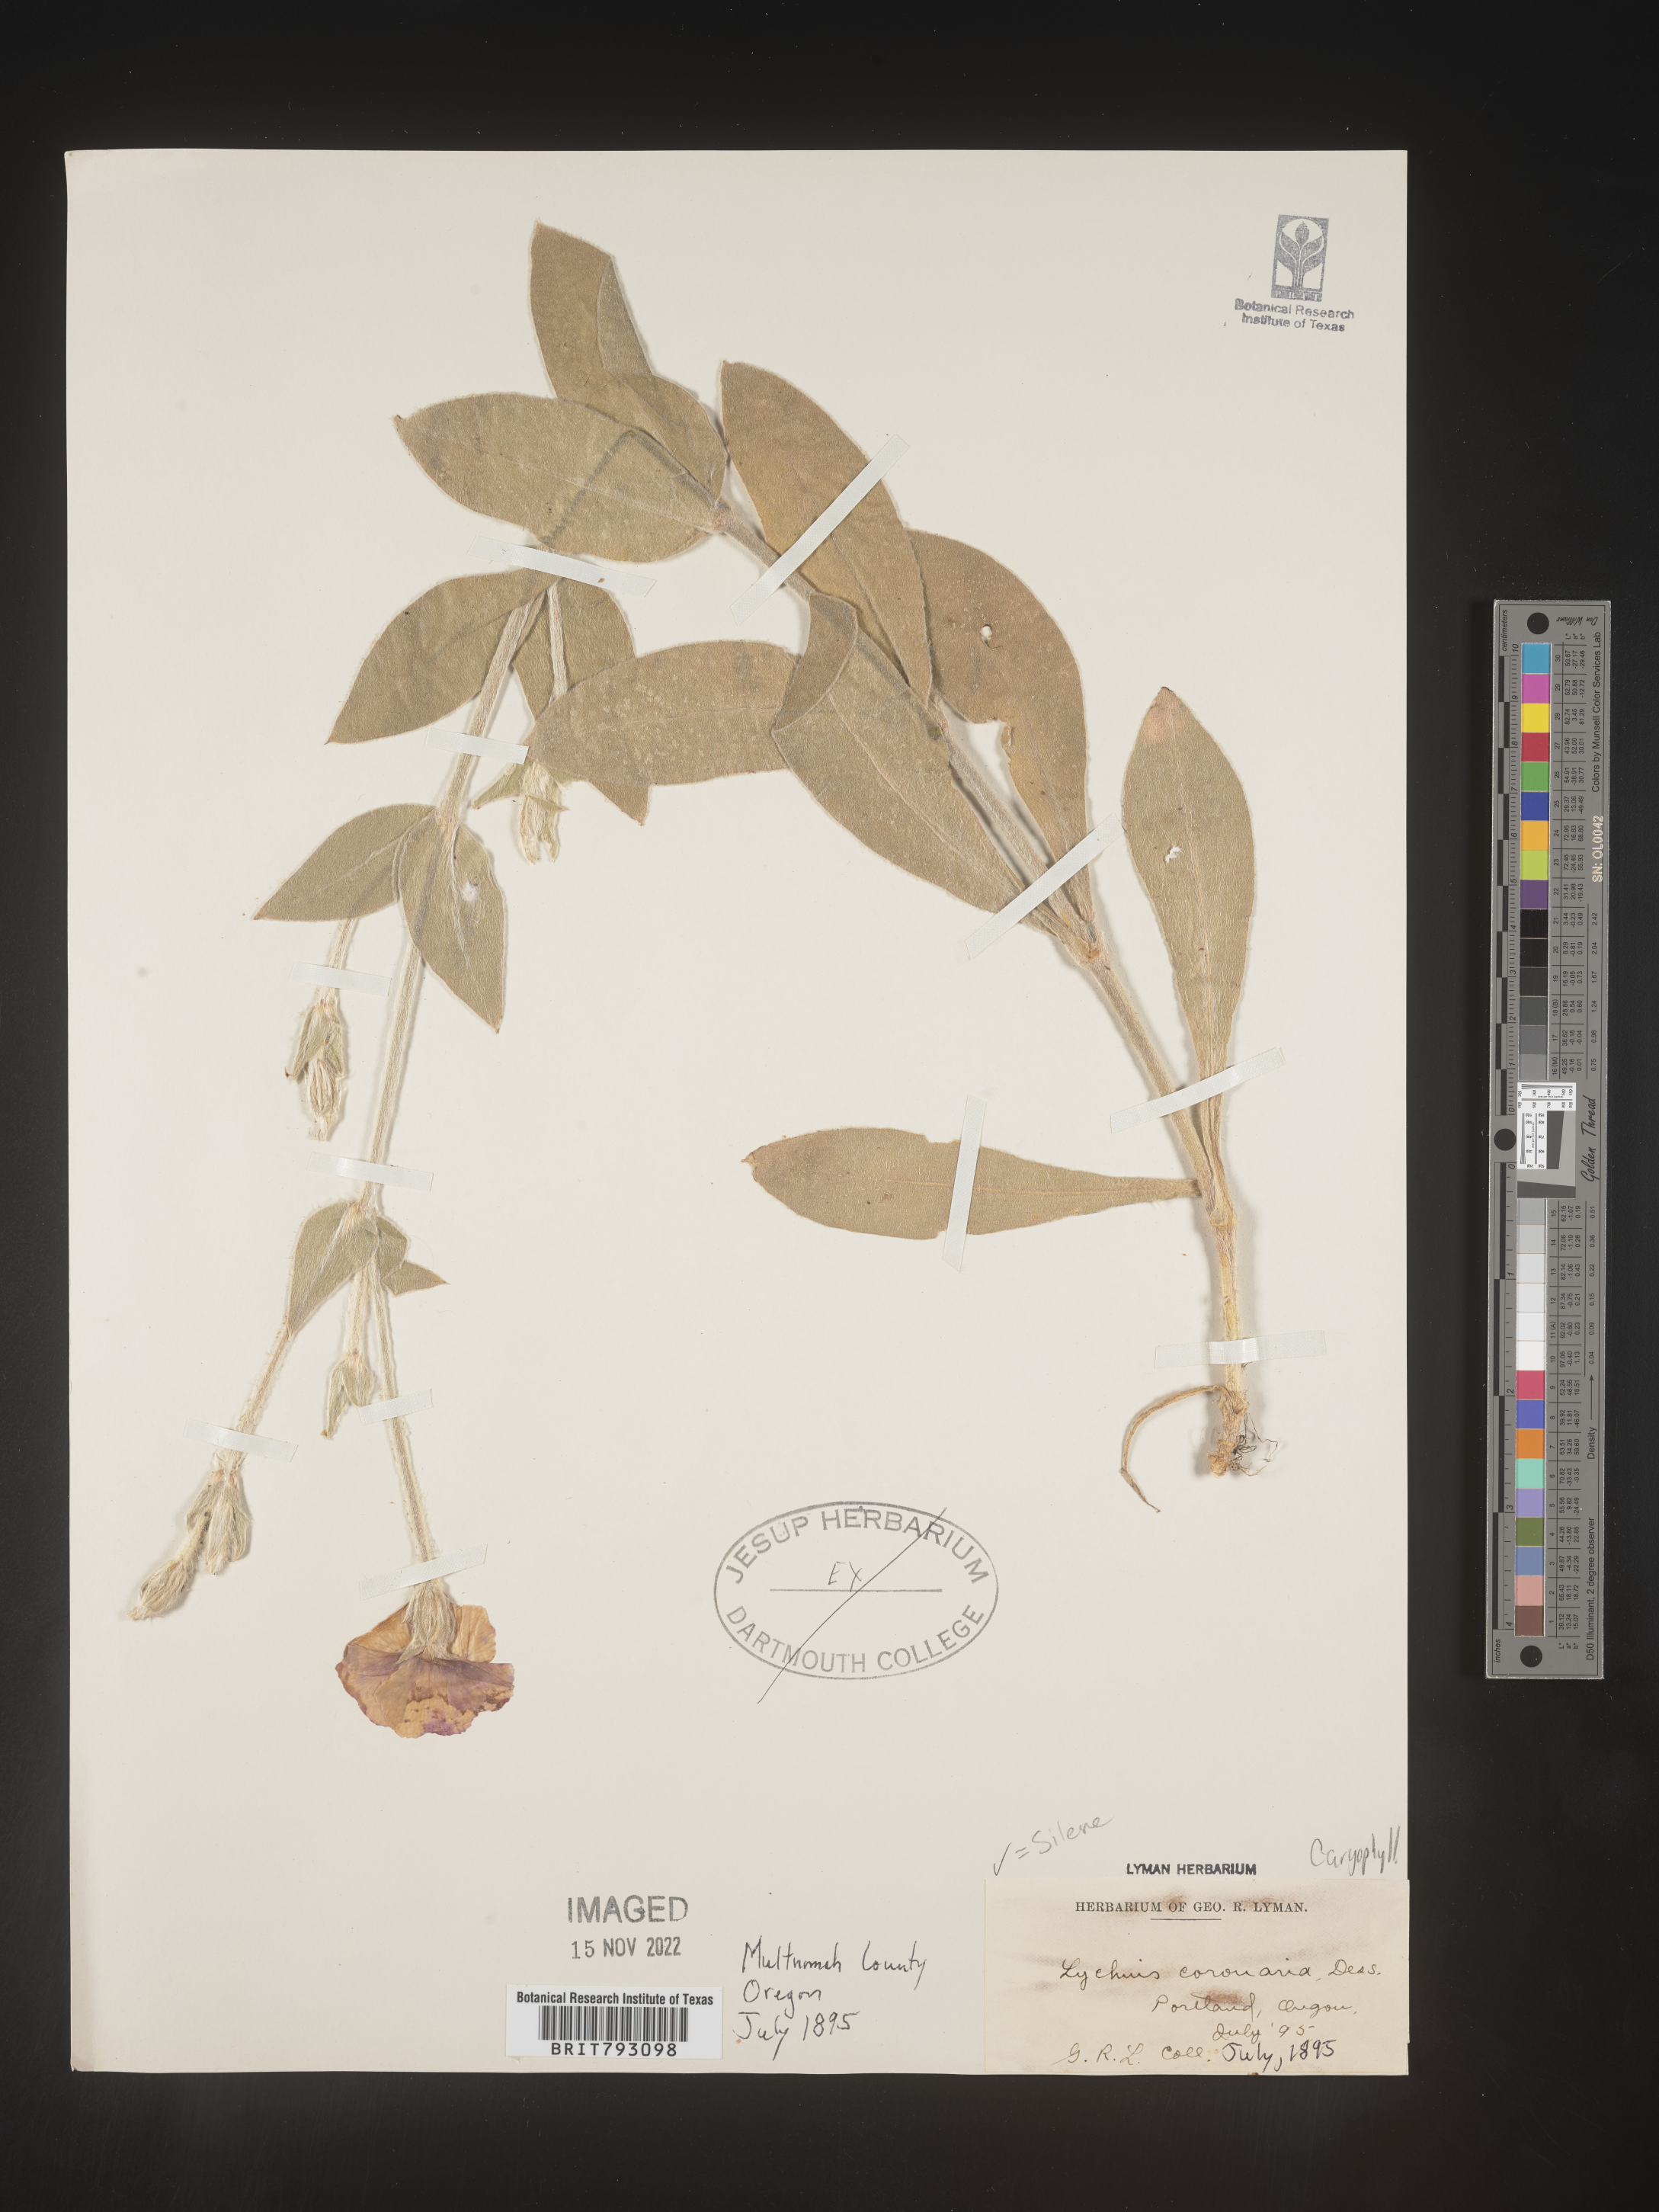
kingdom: Plantae
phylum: Tracheophyta
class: Magnoliopsida
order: Caryophyllales
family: Caryophyllaceae
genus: Silene
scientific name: Silene coronaria
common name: Rose campion
